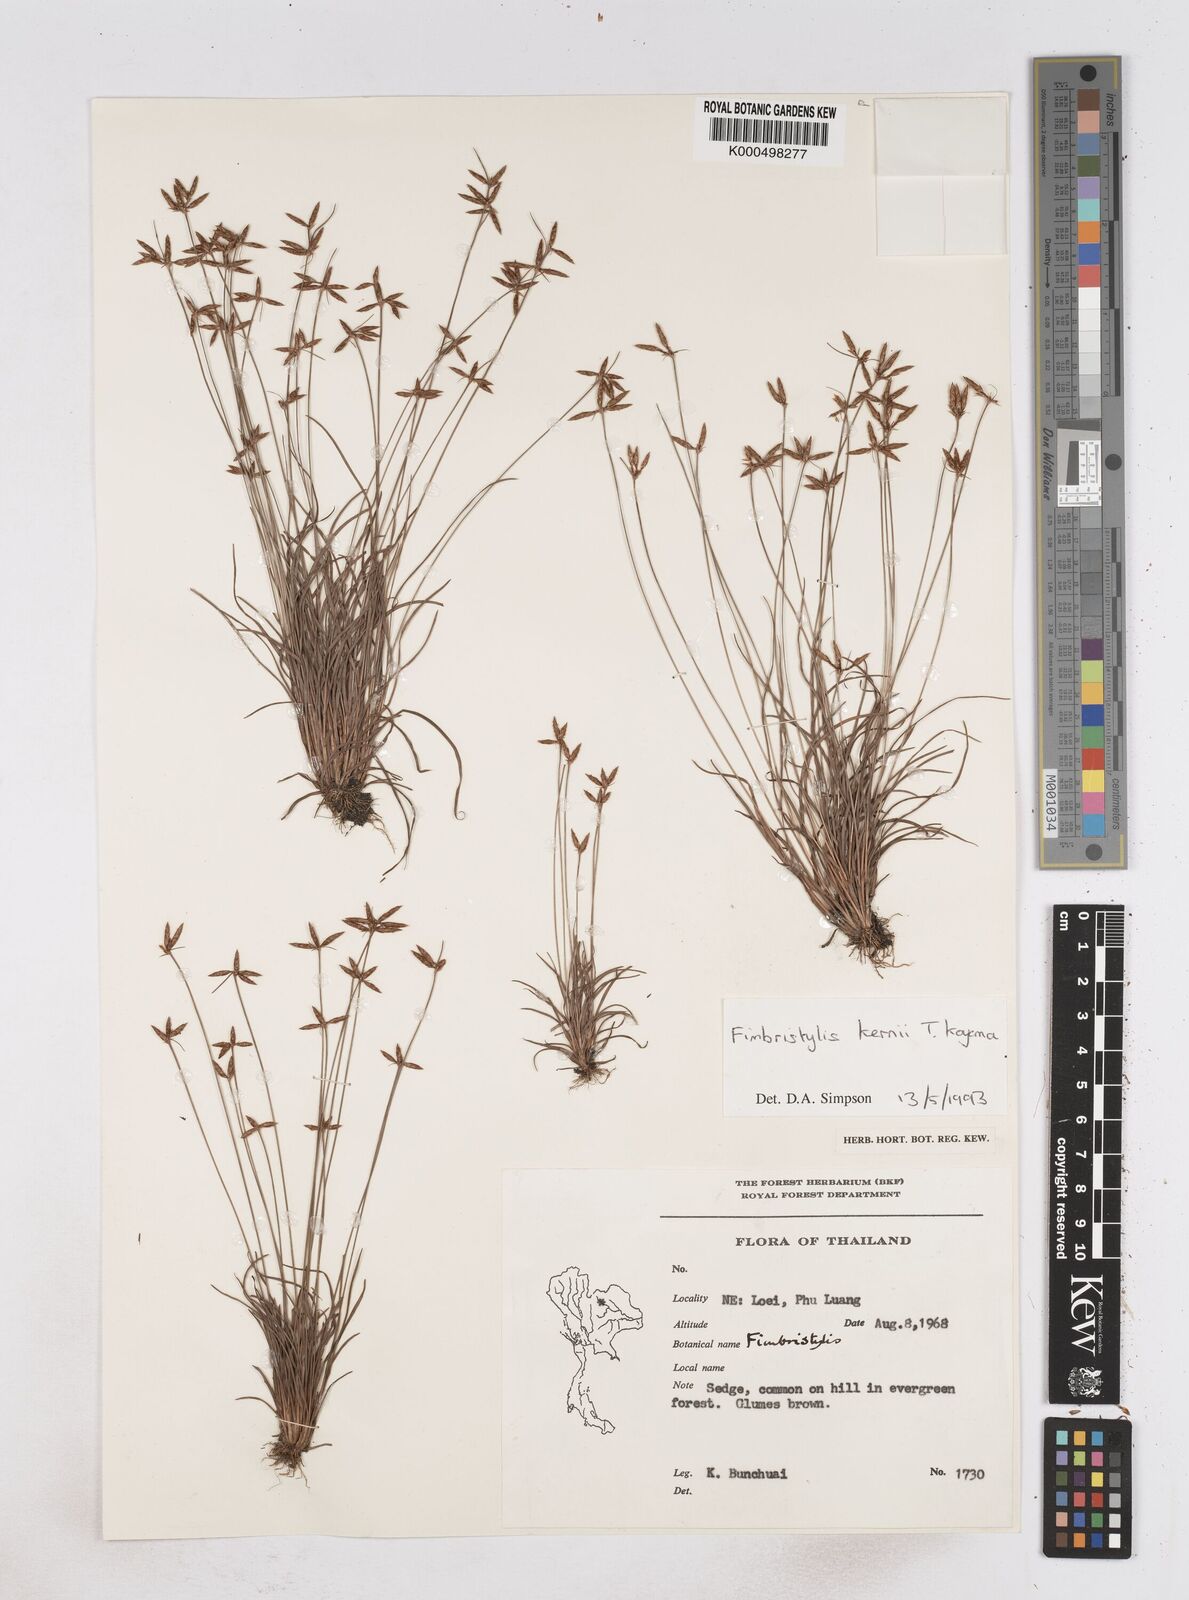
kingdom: Plantae
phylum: Tracheophyta
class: Liliopsida
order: Poales
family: Cyperaceae
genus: Fimbristylis
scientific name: Fimbristylis kernii
